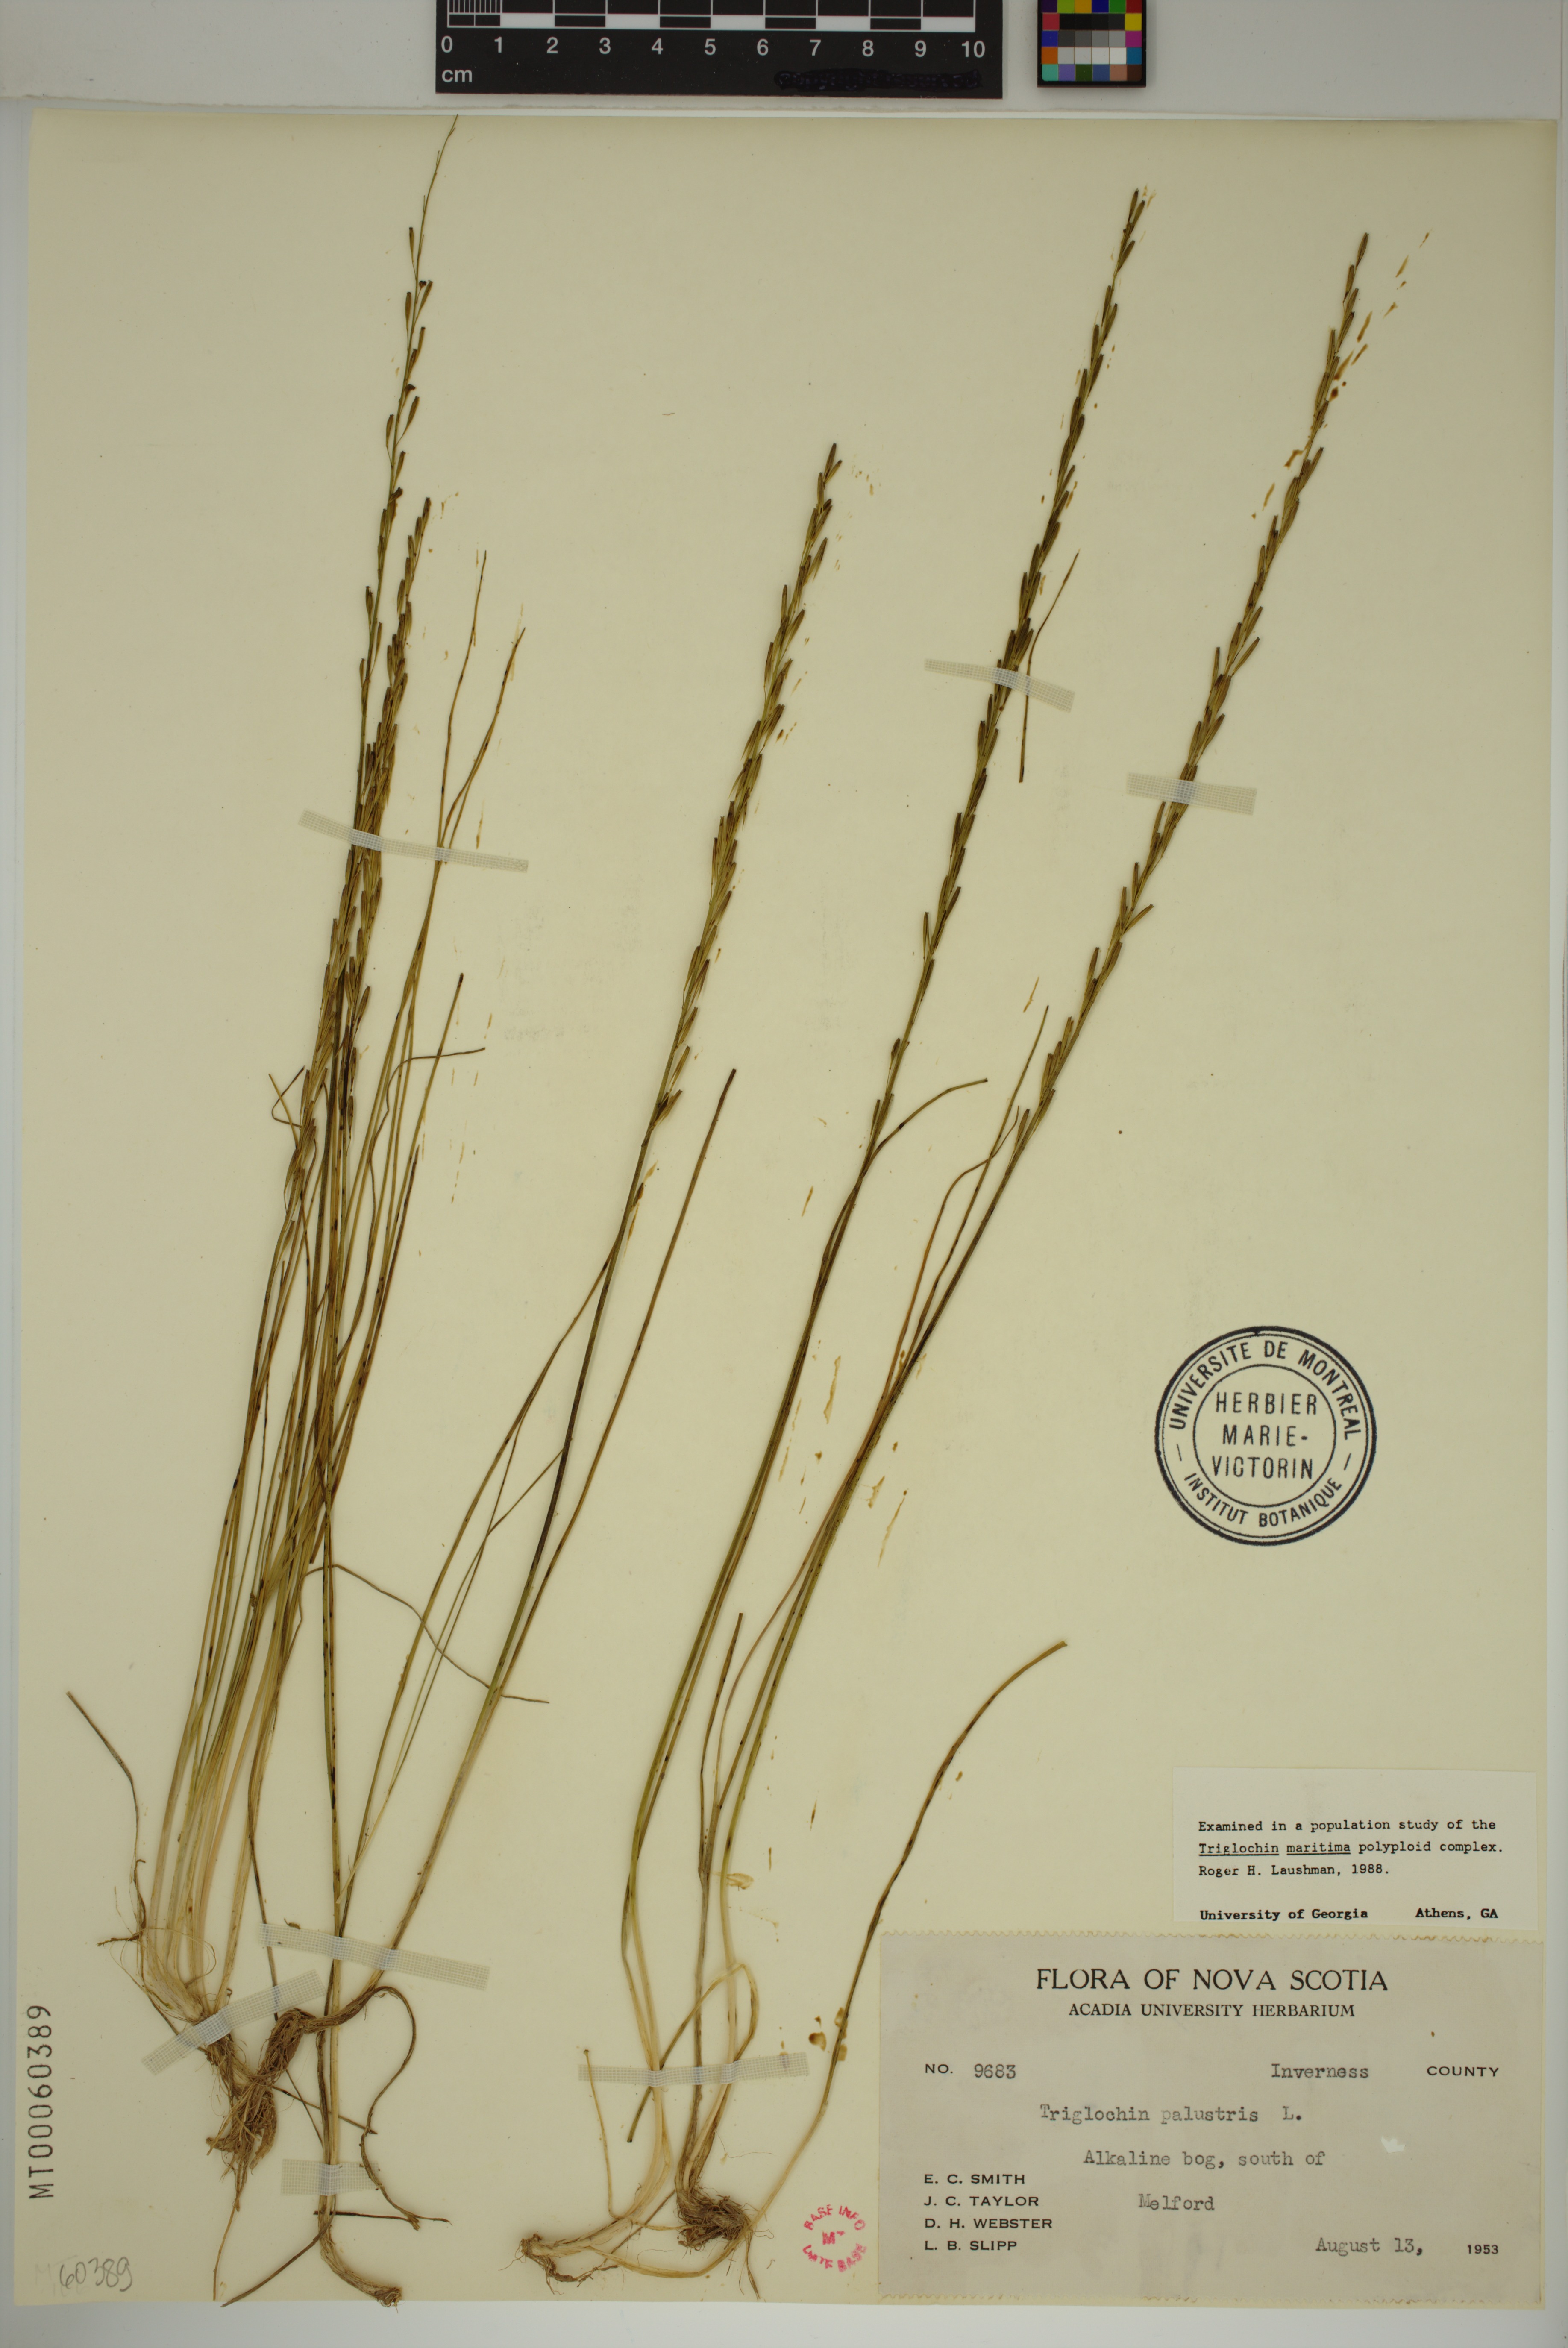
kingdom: Plantae
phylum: Tracheophyta
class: Liliopsida
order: Alismatales
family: Juncaginaceae
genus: Triglochin
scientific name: Triglochin palustris
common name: Marsh arrowgrass
